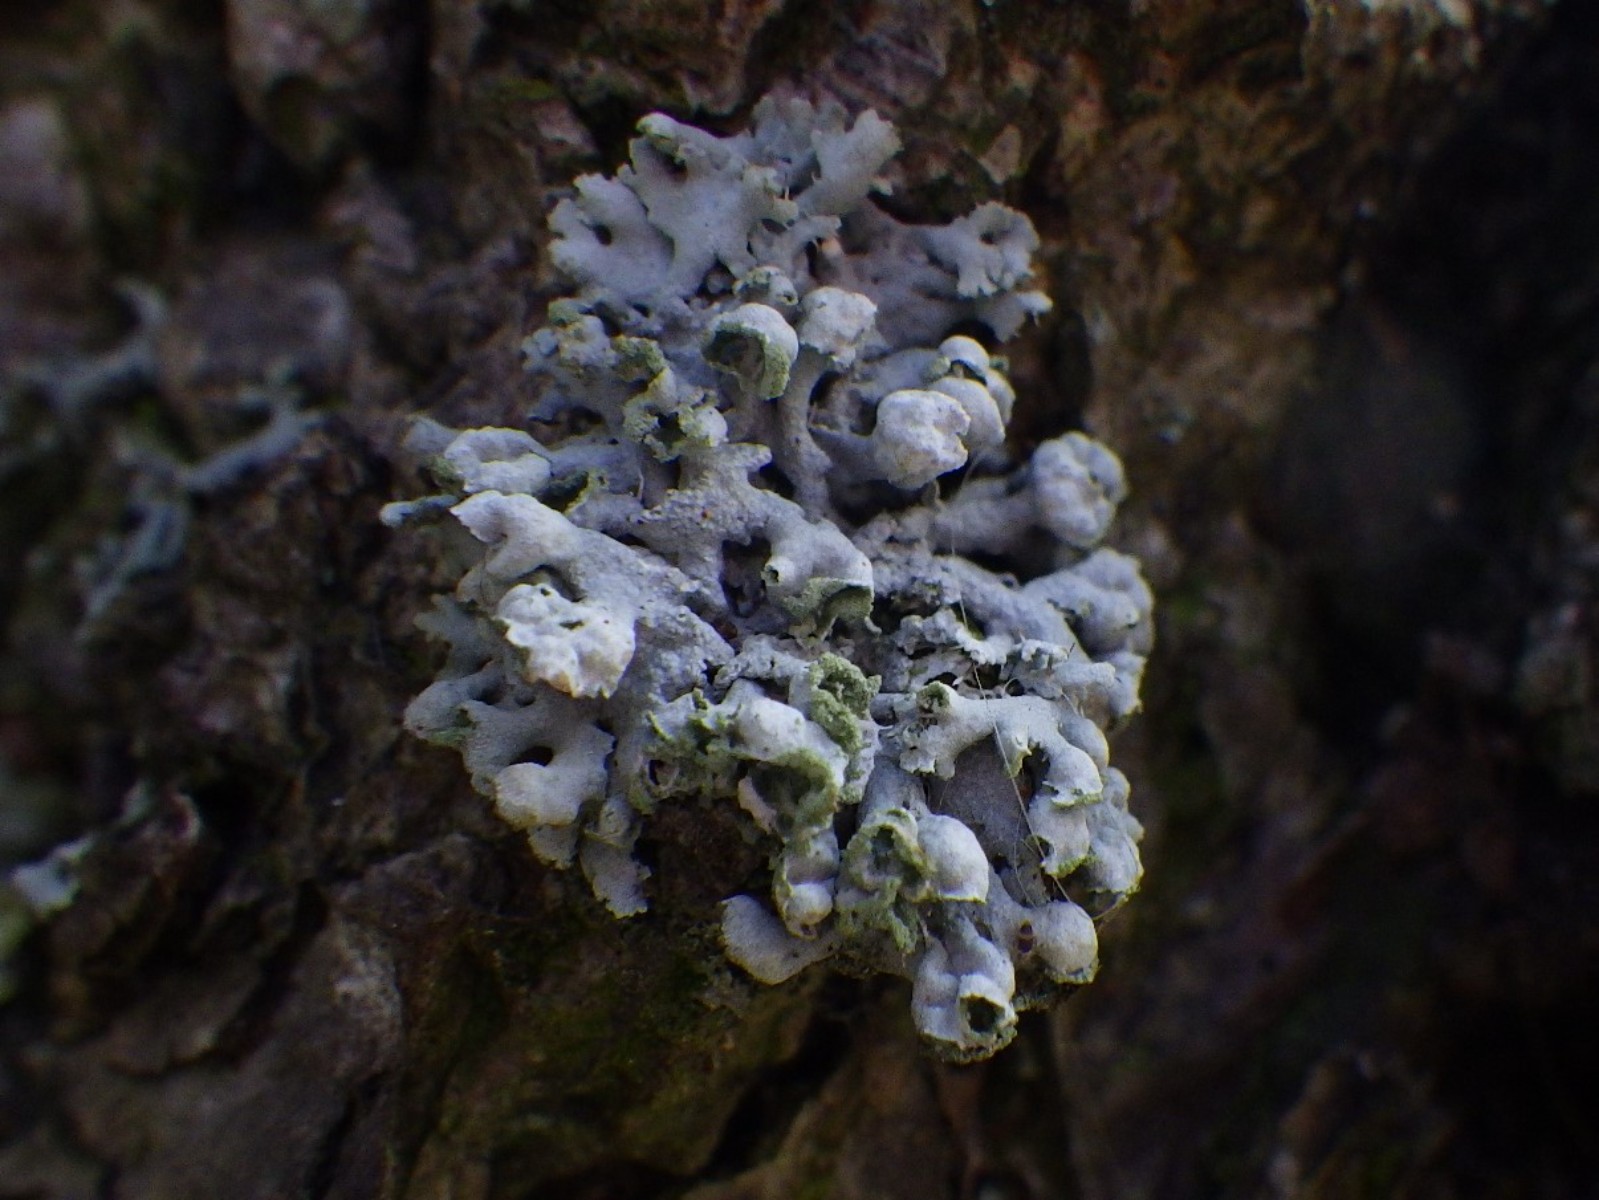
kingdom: Fungi
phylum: Ascomycota
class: Lecanoromycetes
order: Caliciales
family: Physciaceae
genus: Physcia
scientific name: Physcia adscendens
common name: hætte-rosetlav
